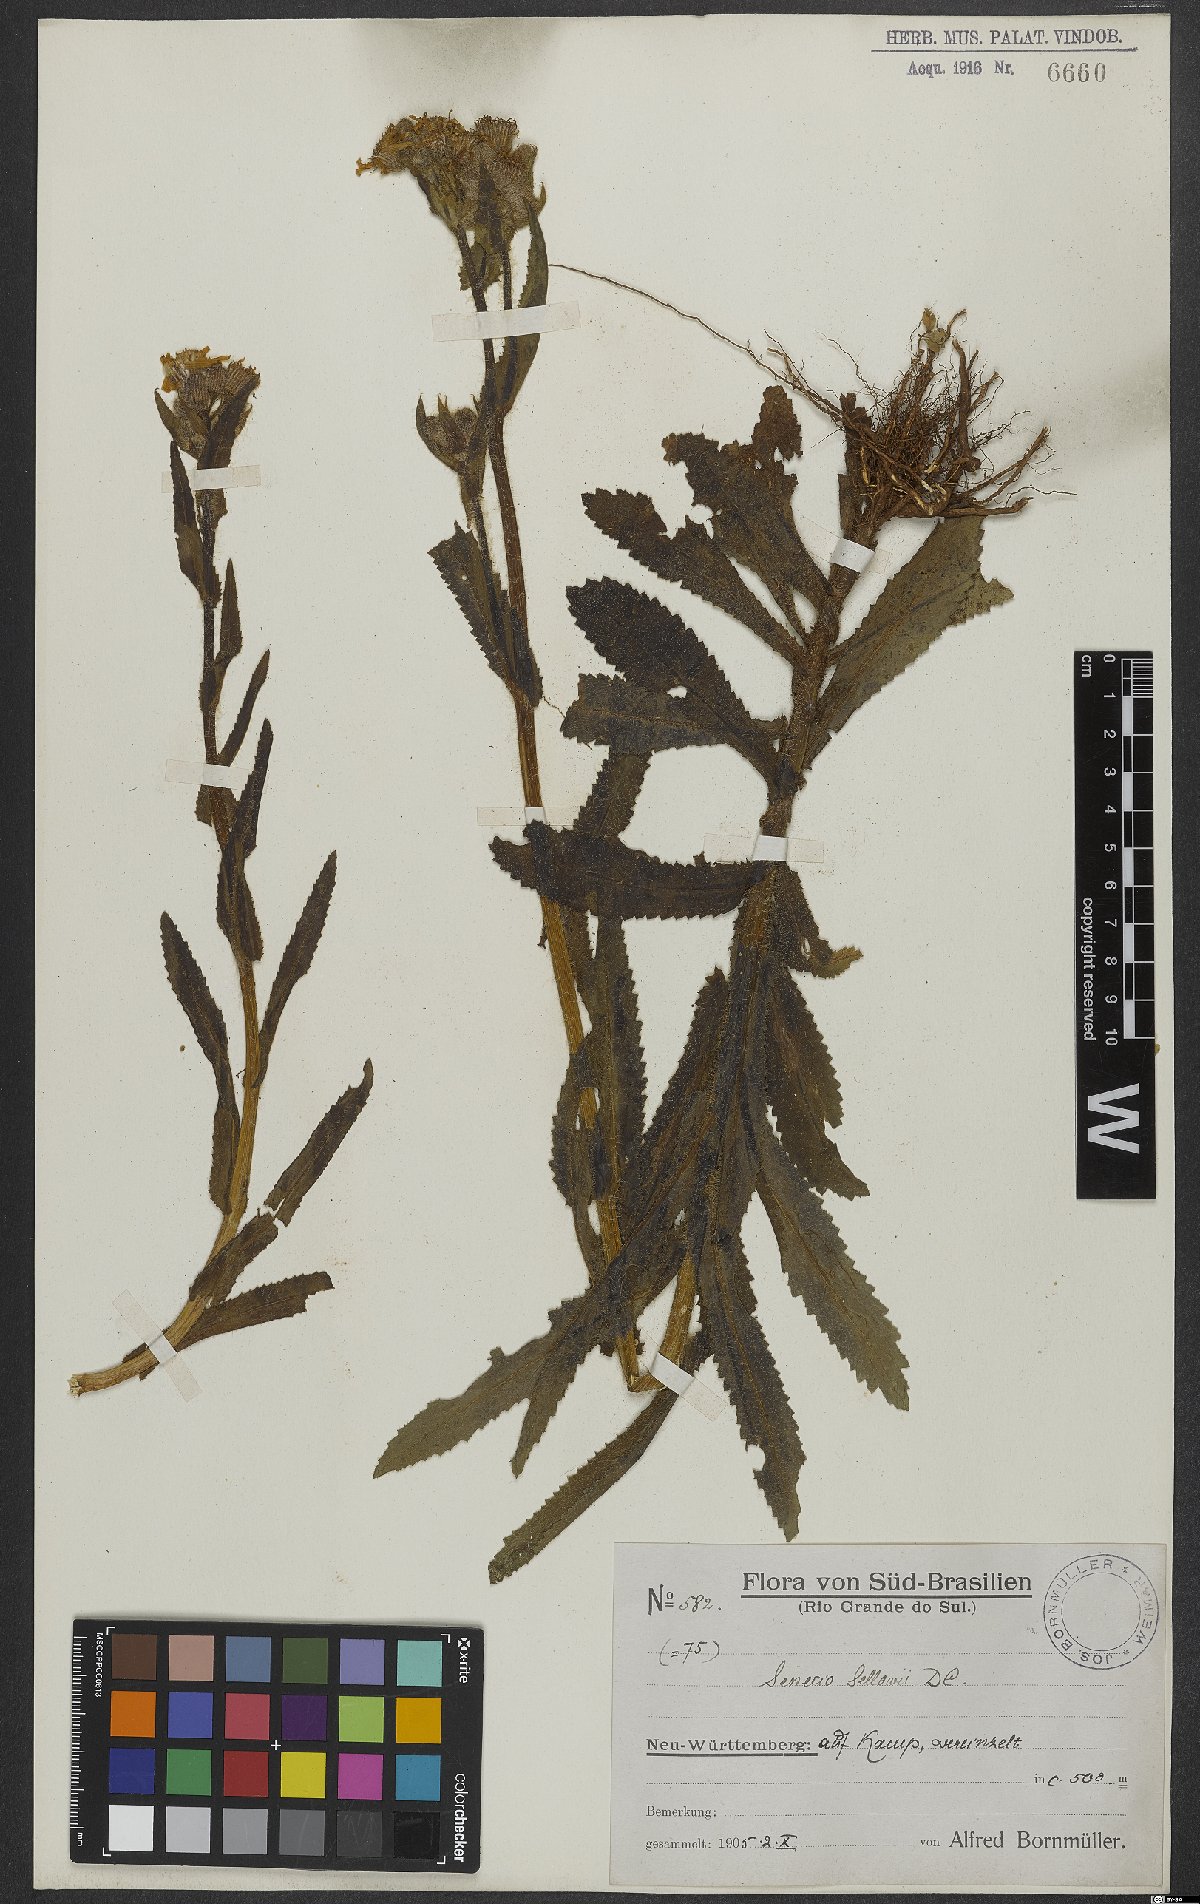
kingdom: Plantae
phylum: Tracheophyta
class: Magnoliopsida
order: Asterales
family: Asteraceae
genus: Senecio
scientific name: Senecio selloi
